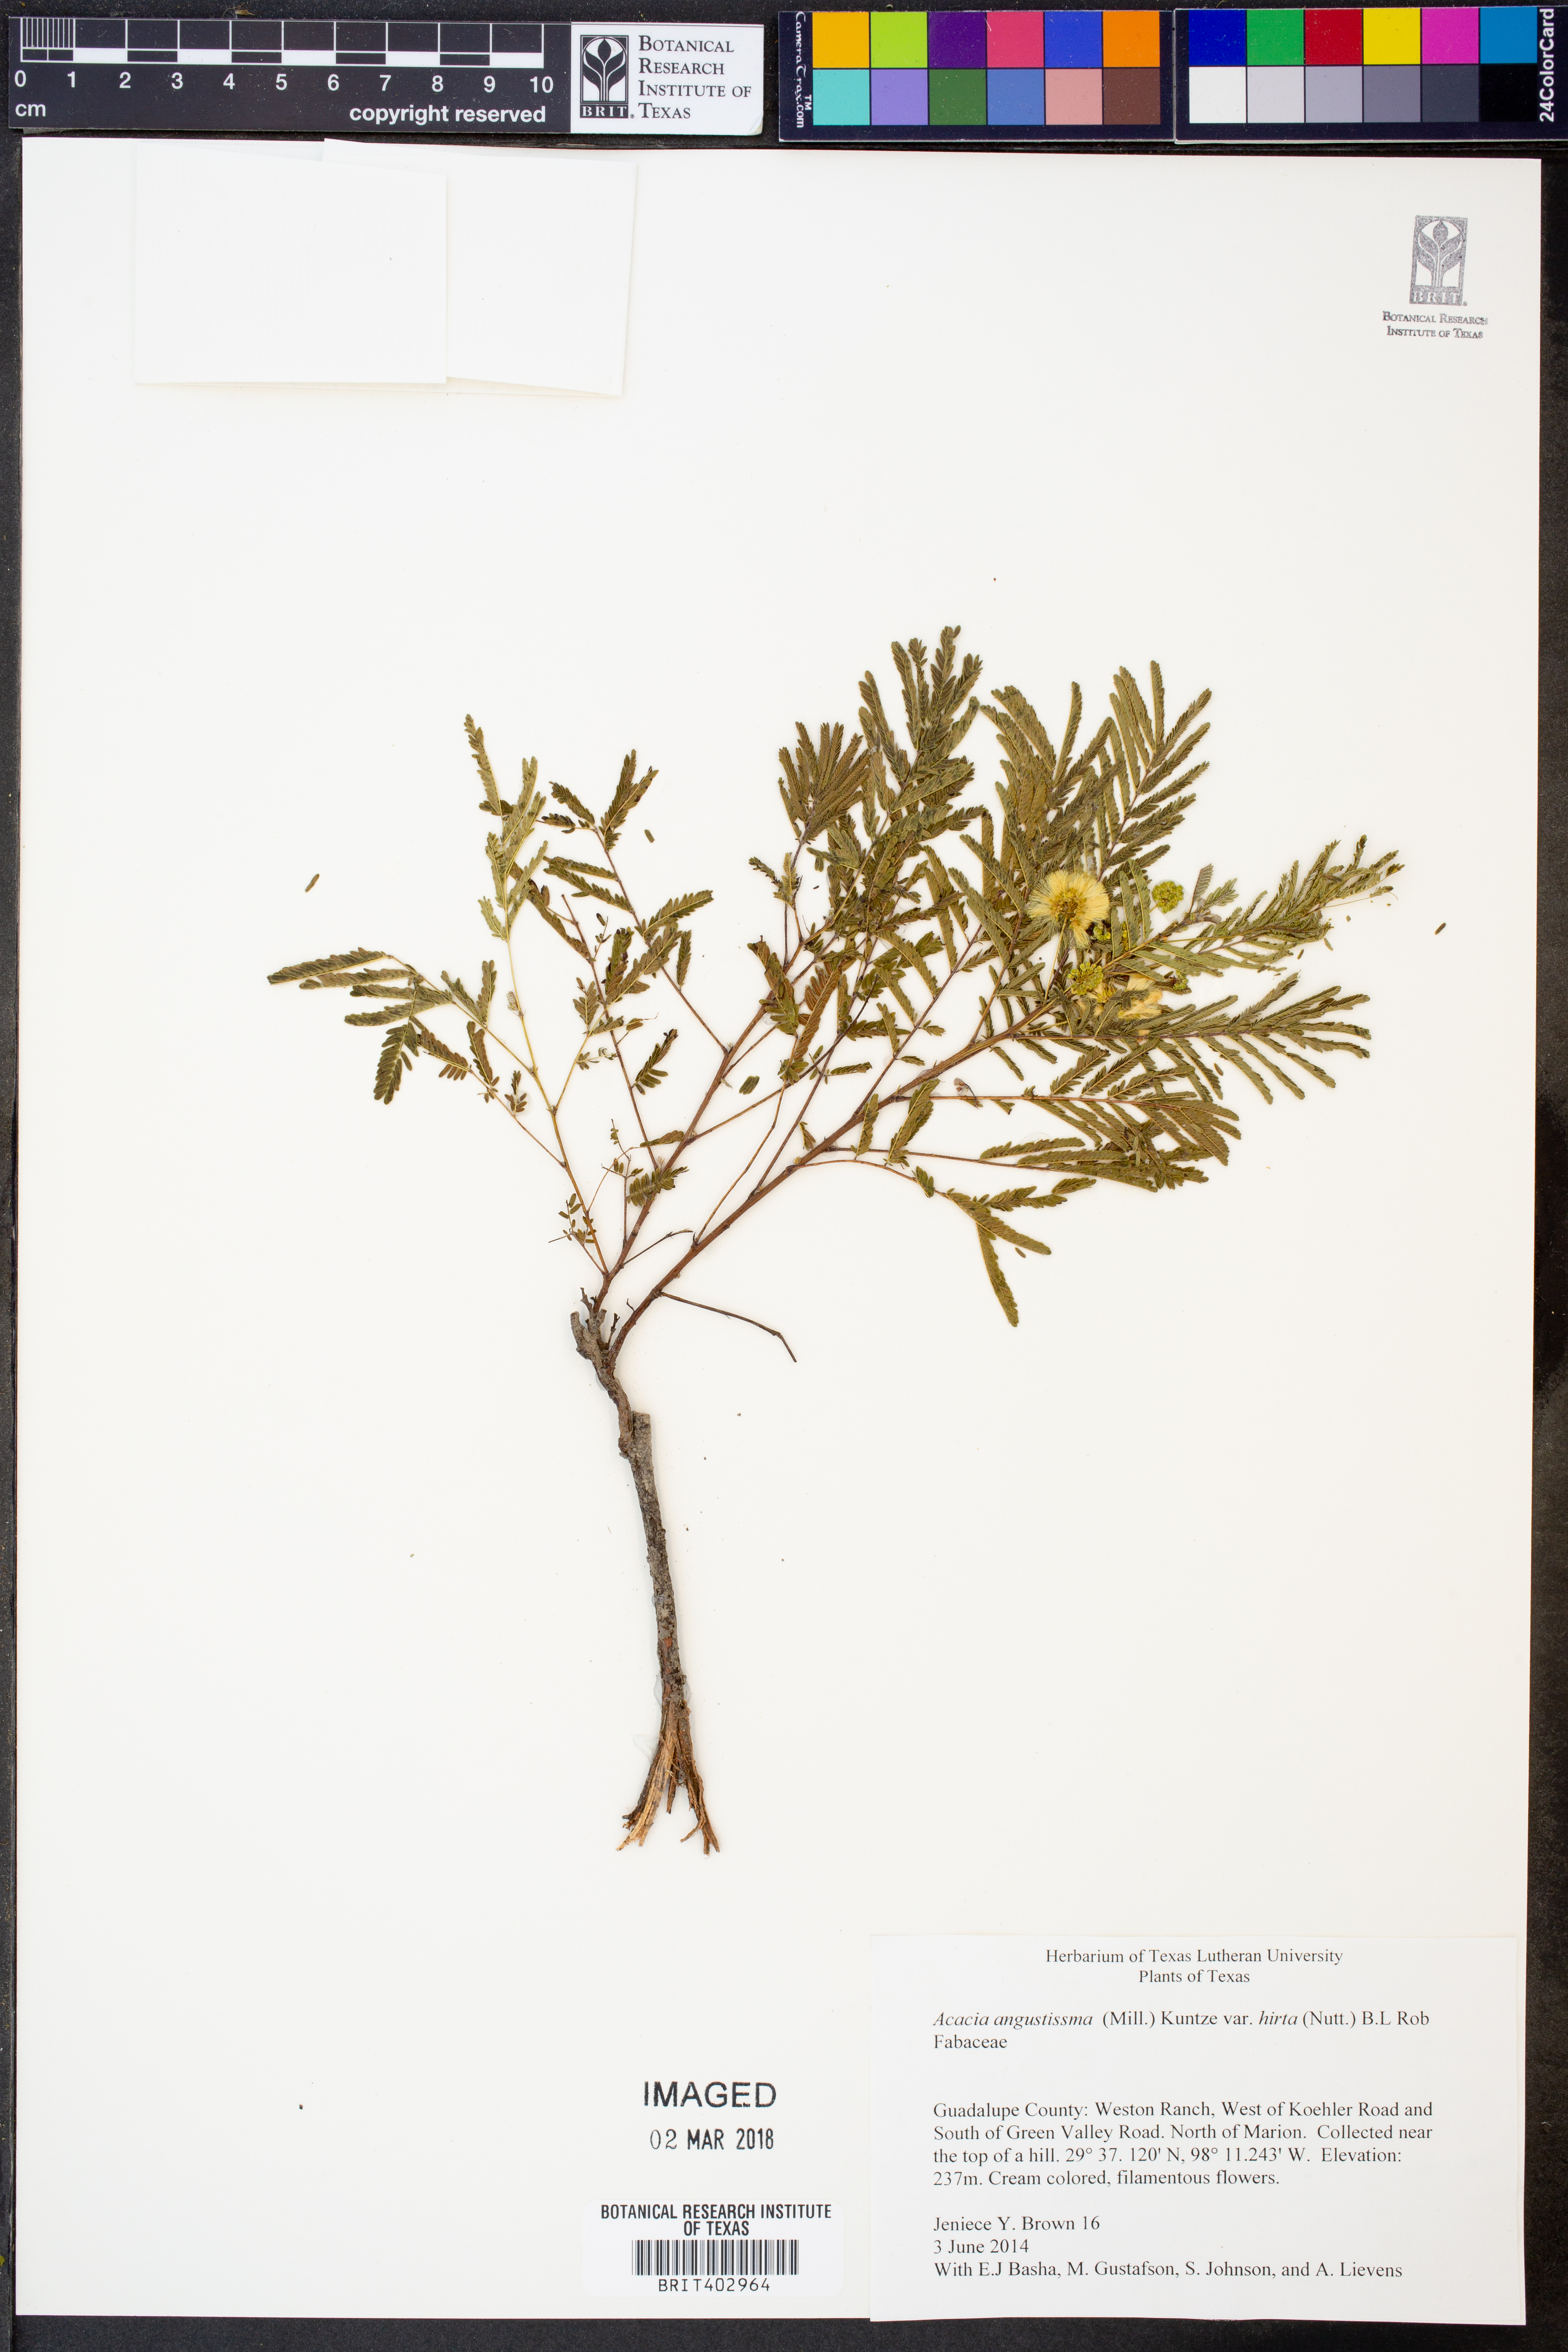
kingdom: Plantae
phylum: Tracheophyta
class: Magnoliopsida
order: Fabales
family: Fabaceae
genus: Acaciella
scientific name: Acaciella angustissima
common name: Prairie acacia
